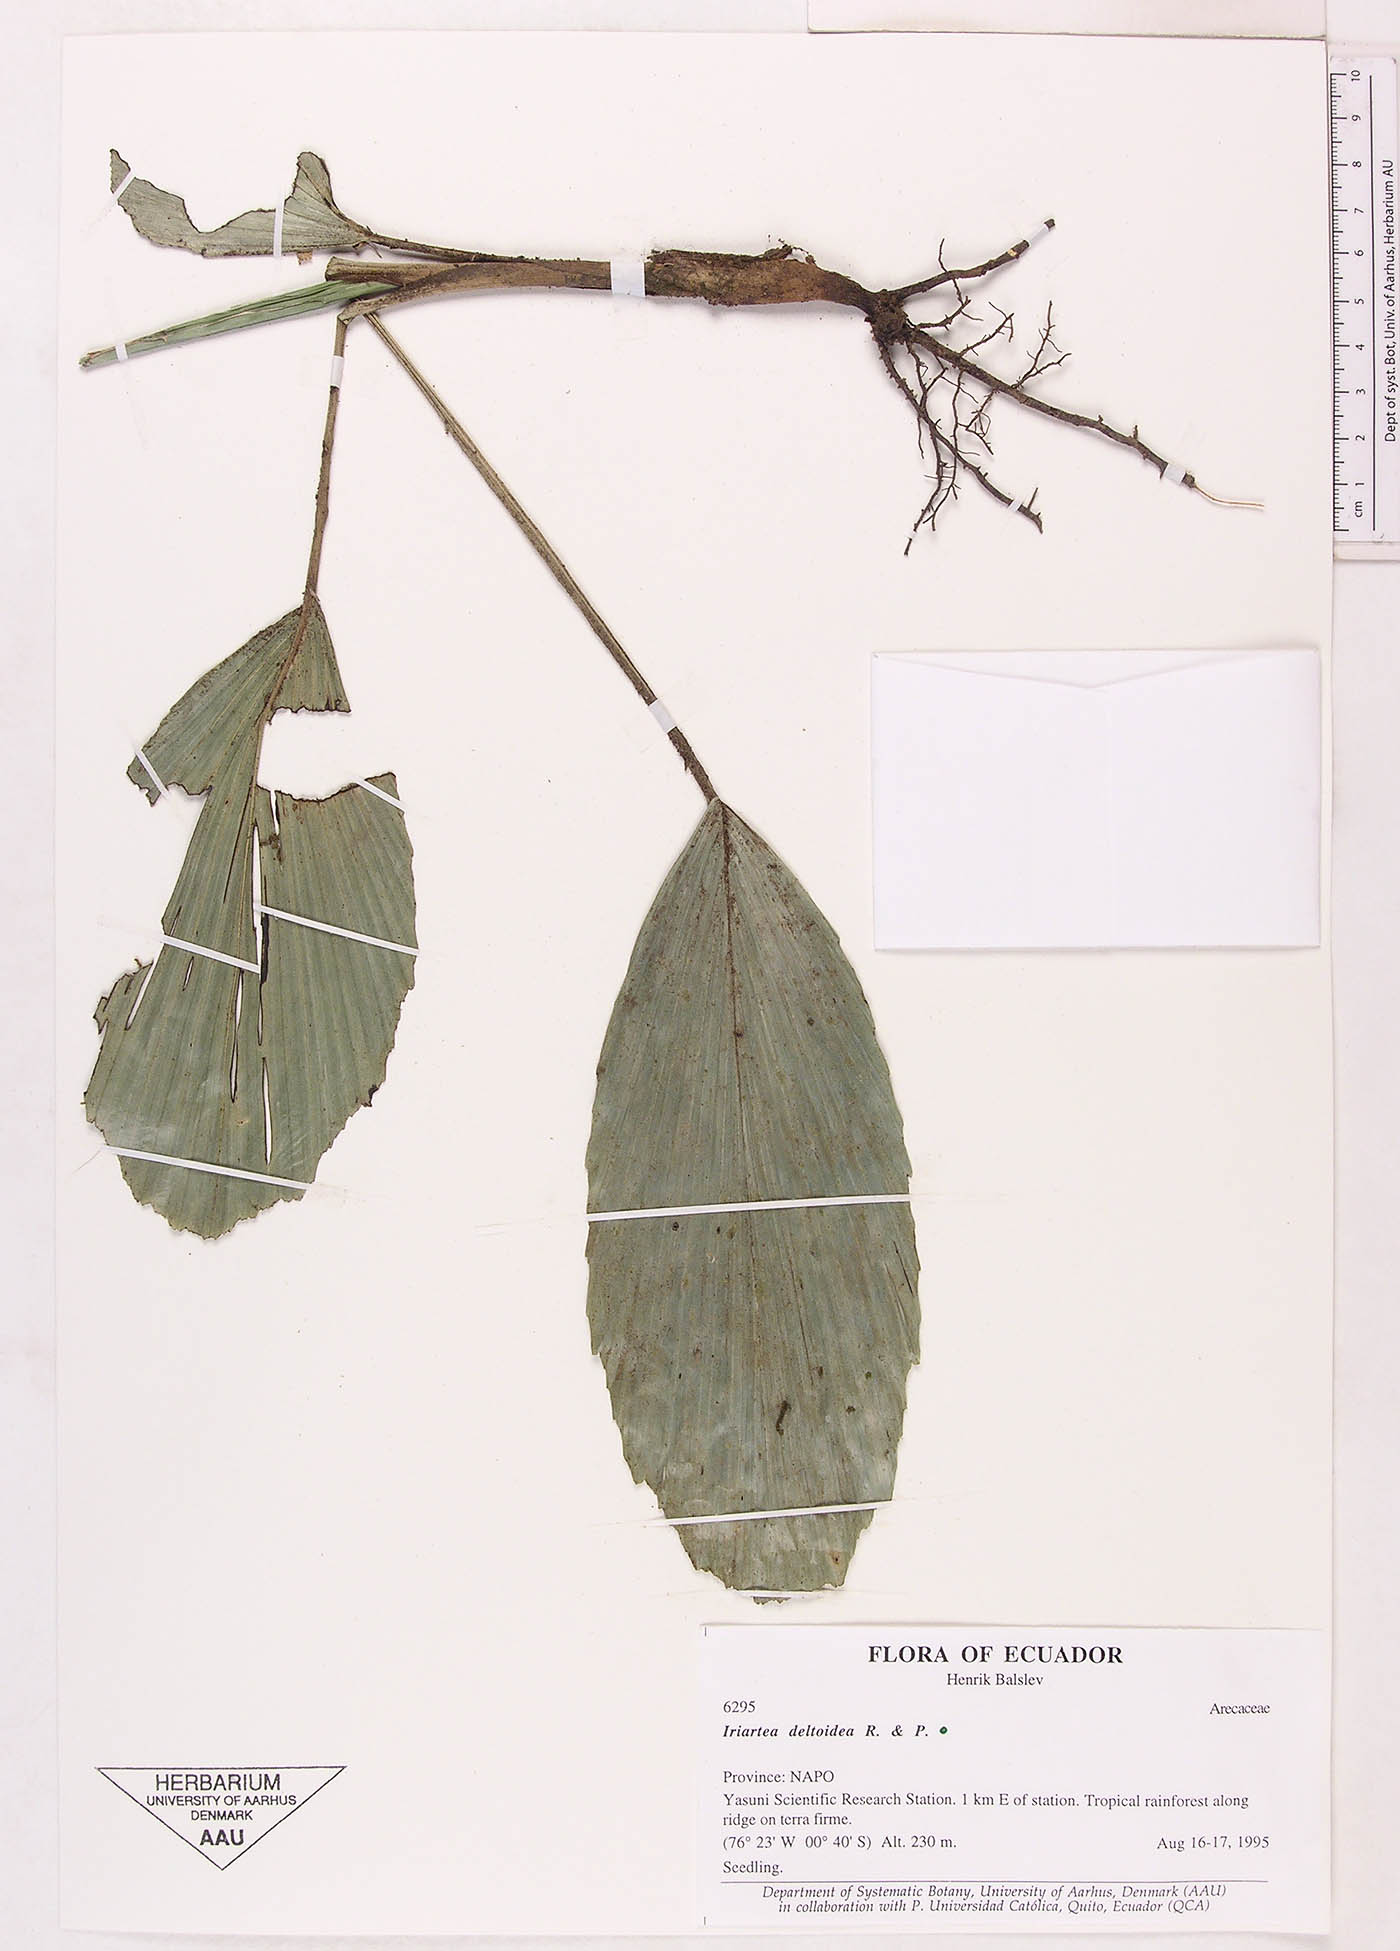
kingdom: Plantae
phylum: Tracheophyta
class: Liliopsida
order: Arecales
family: Arecaceae
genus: Iriartea
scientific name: Iriartea deltoidea
